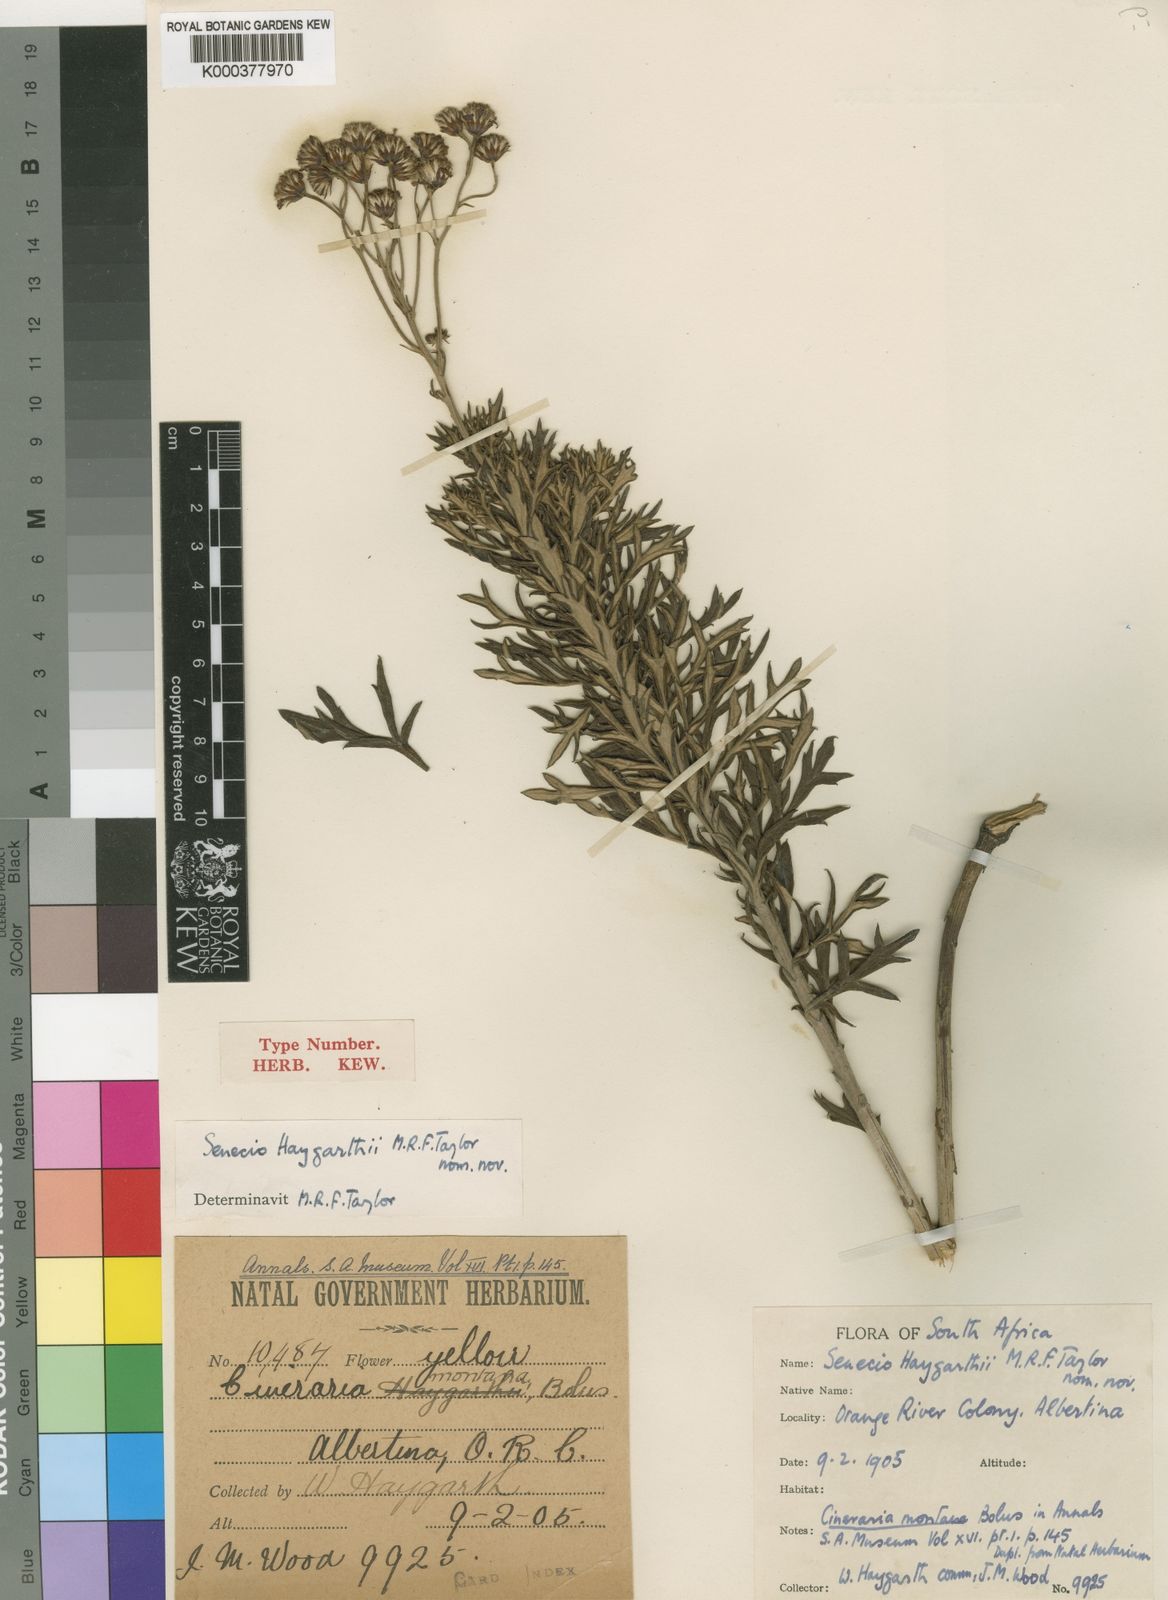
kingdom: Plantae
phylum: Tracheophyta
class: Magnoliopsida
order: Asterales
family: Asteraceae
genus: Senecio
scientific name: Senecio
